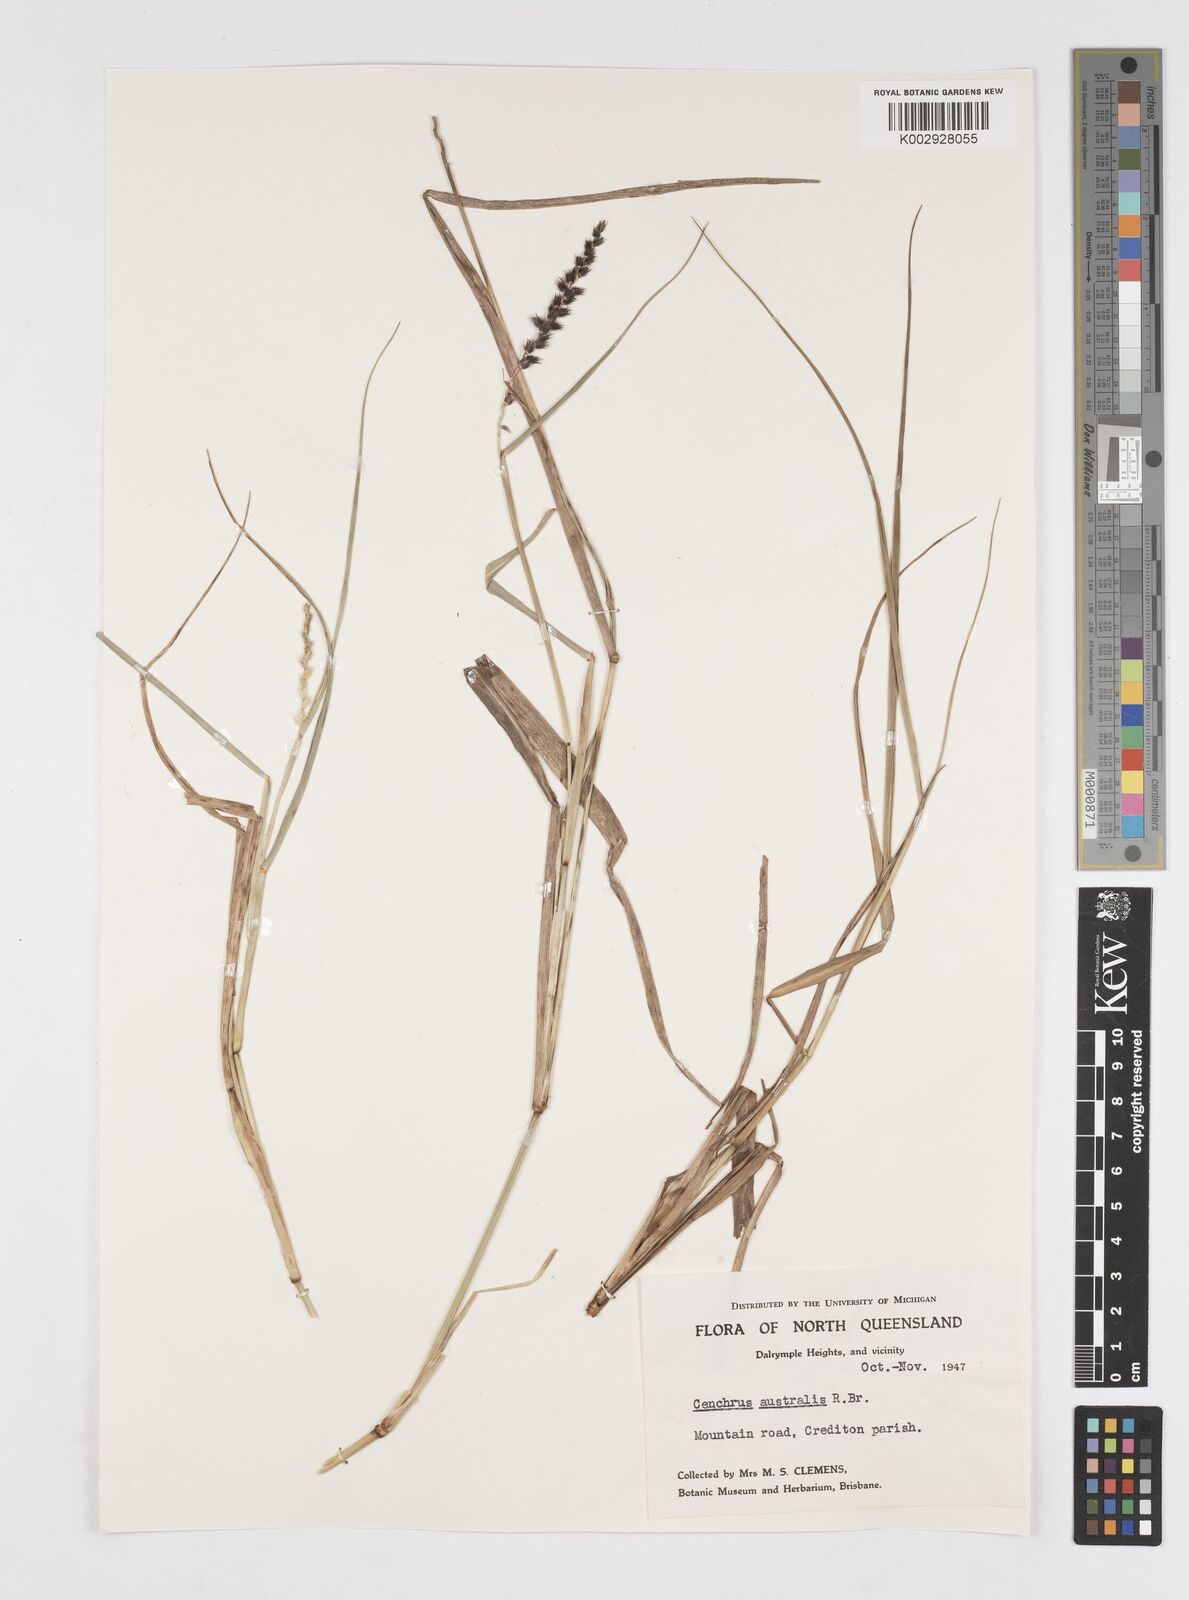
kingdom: Plantae
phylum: Tracheophyta
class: Liliopsida
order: Poales
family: Poaceae
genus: Cenchrus
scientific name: Cenchrus caliculatus
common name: Large bur grass
